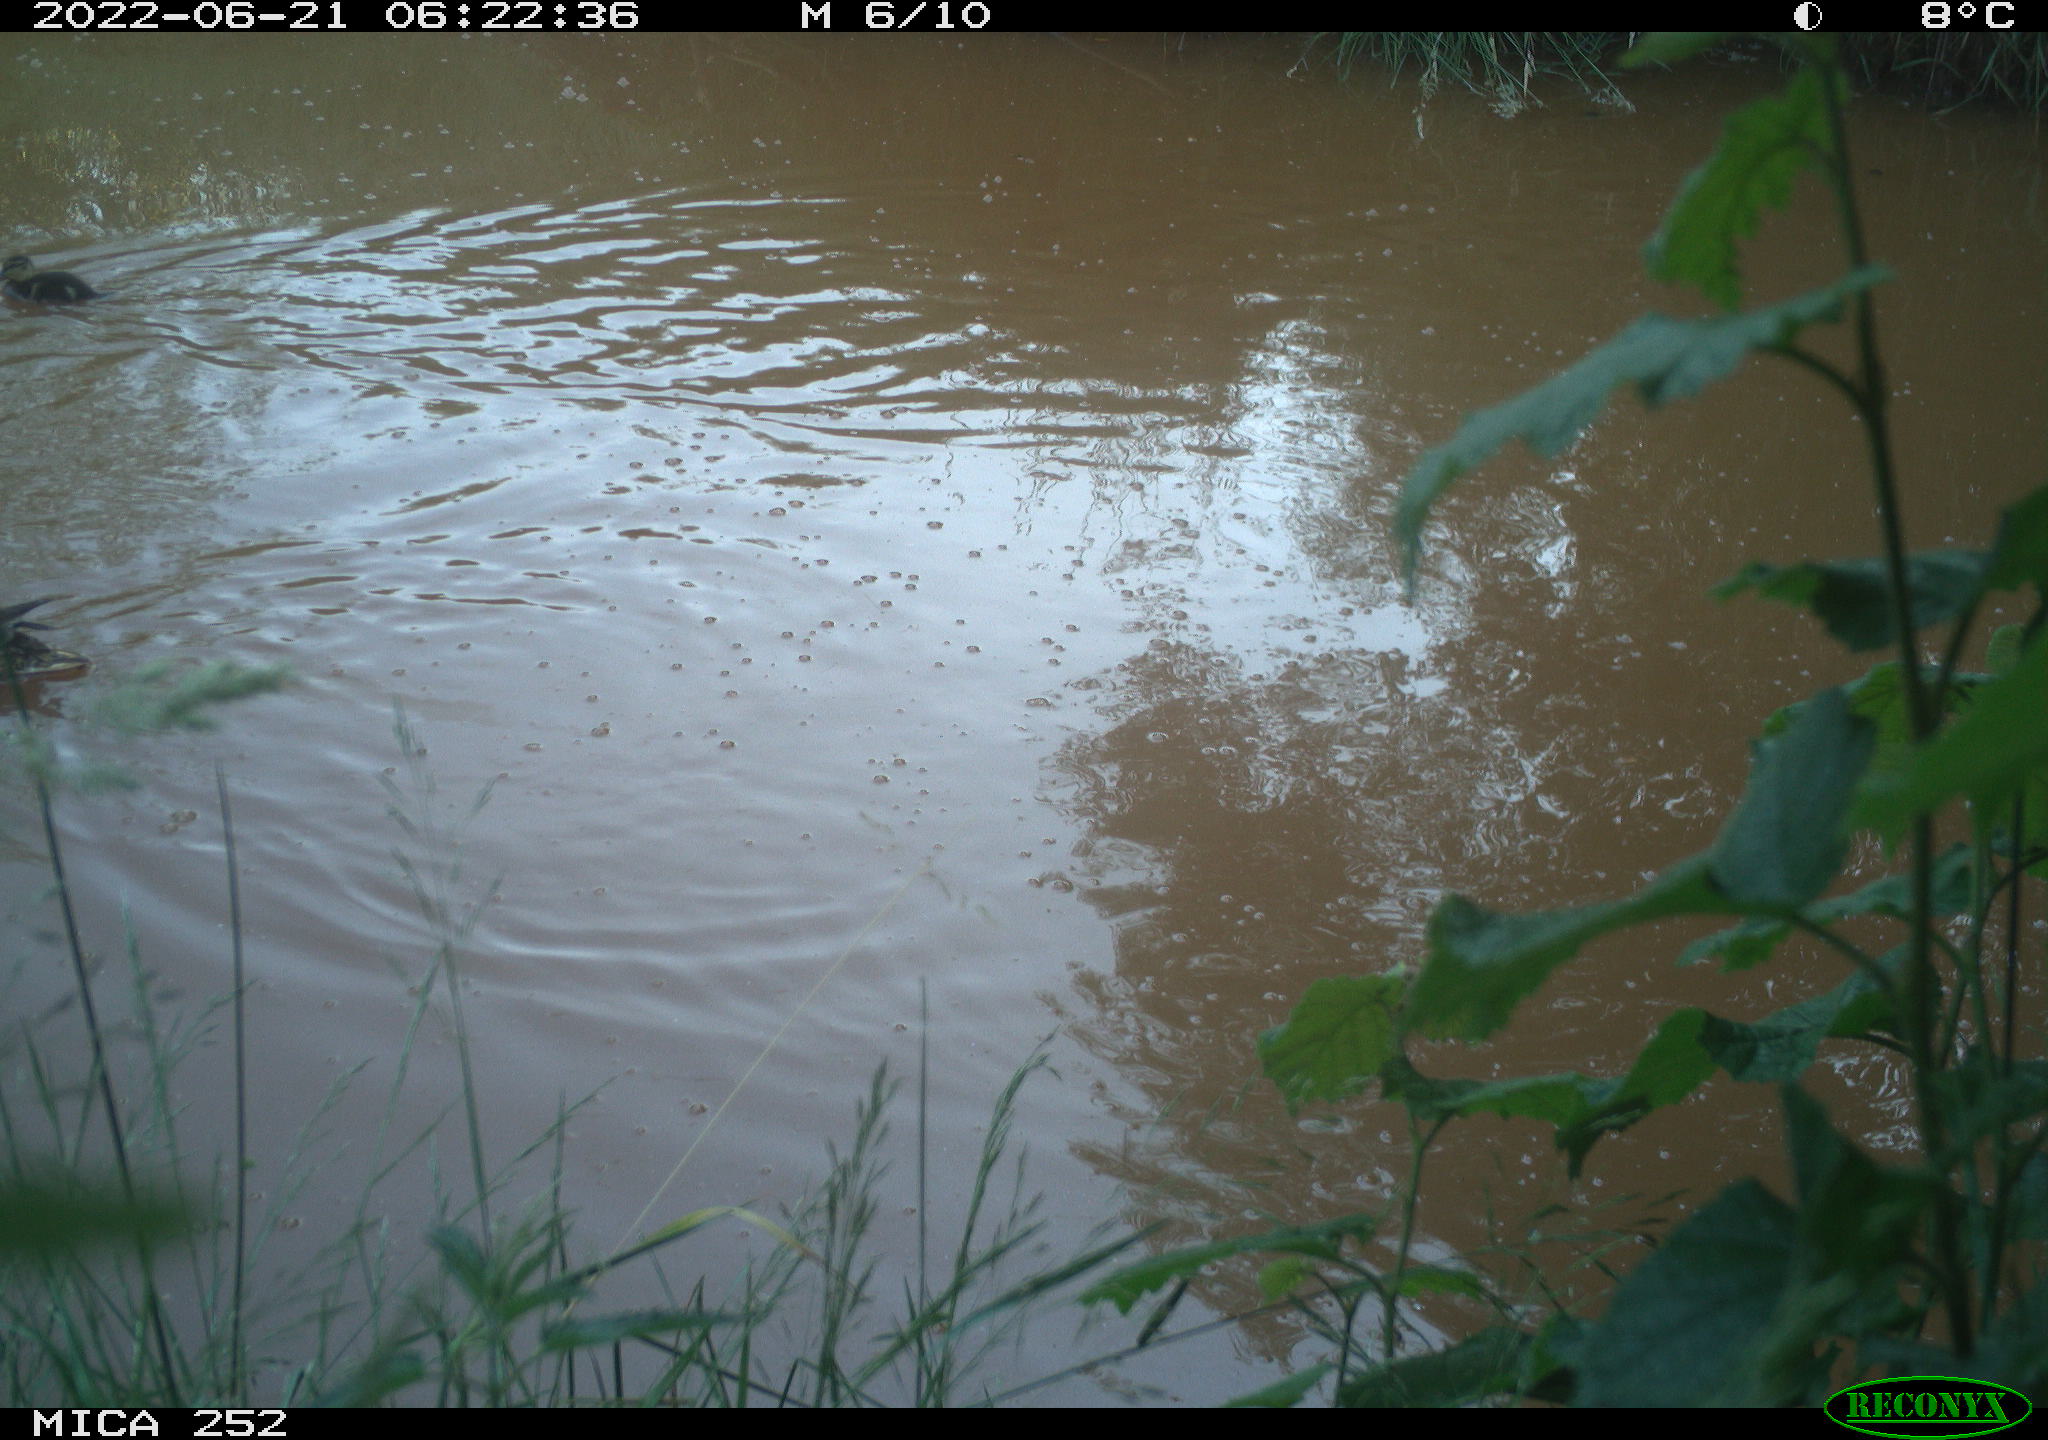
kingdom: Animalia
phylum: Chordata
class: Aves
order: Anseriformes
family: Anatidae
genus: Mareca
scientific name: Mareca strepera
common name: Gadwall
